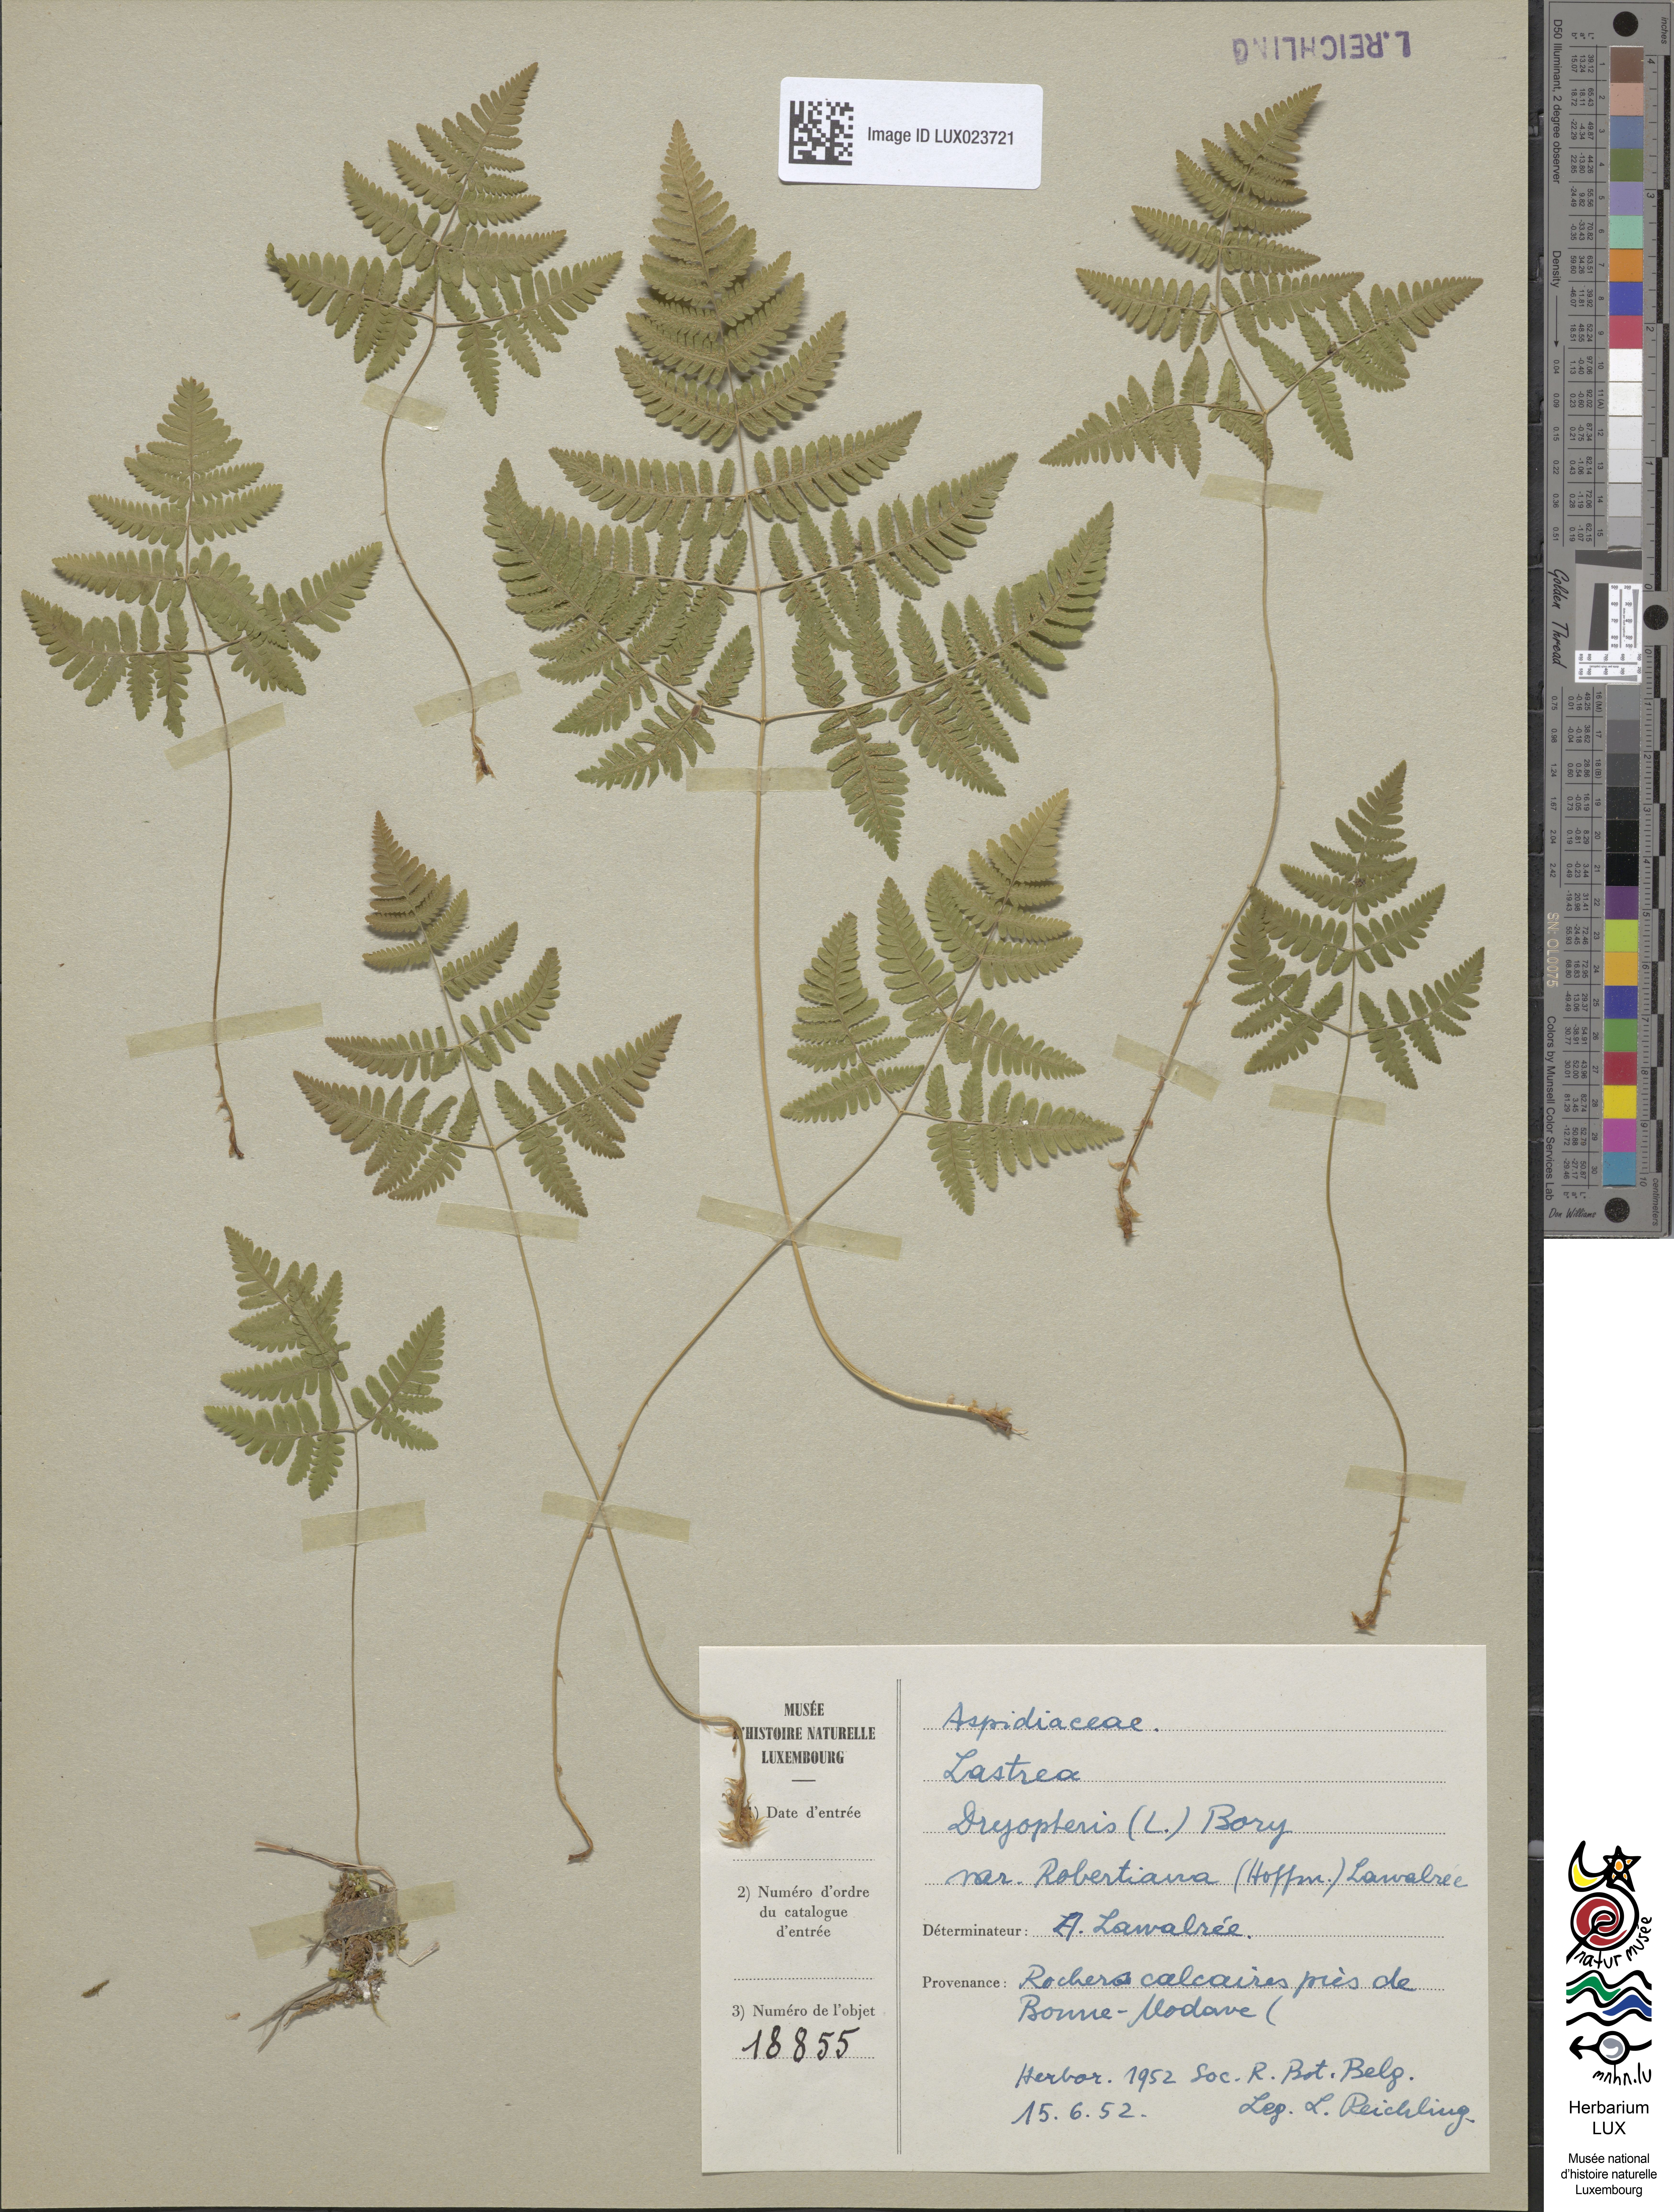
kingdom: Plantae
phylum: Tracheophyta
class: Polypodiopsida
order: Polypodiales
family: Cystopteridaceae
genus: Gymnocarpium
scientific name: Gymnocarpium robertianum
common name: Limestone fern
